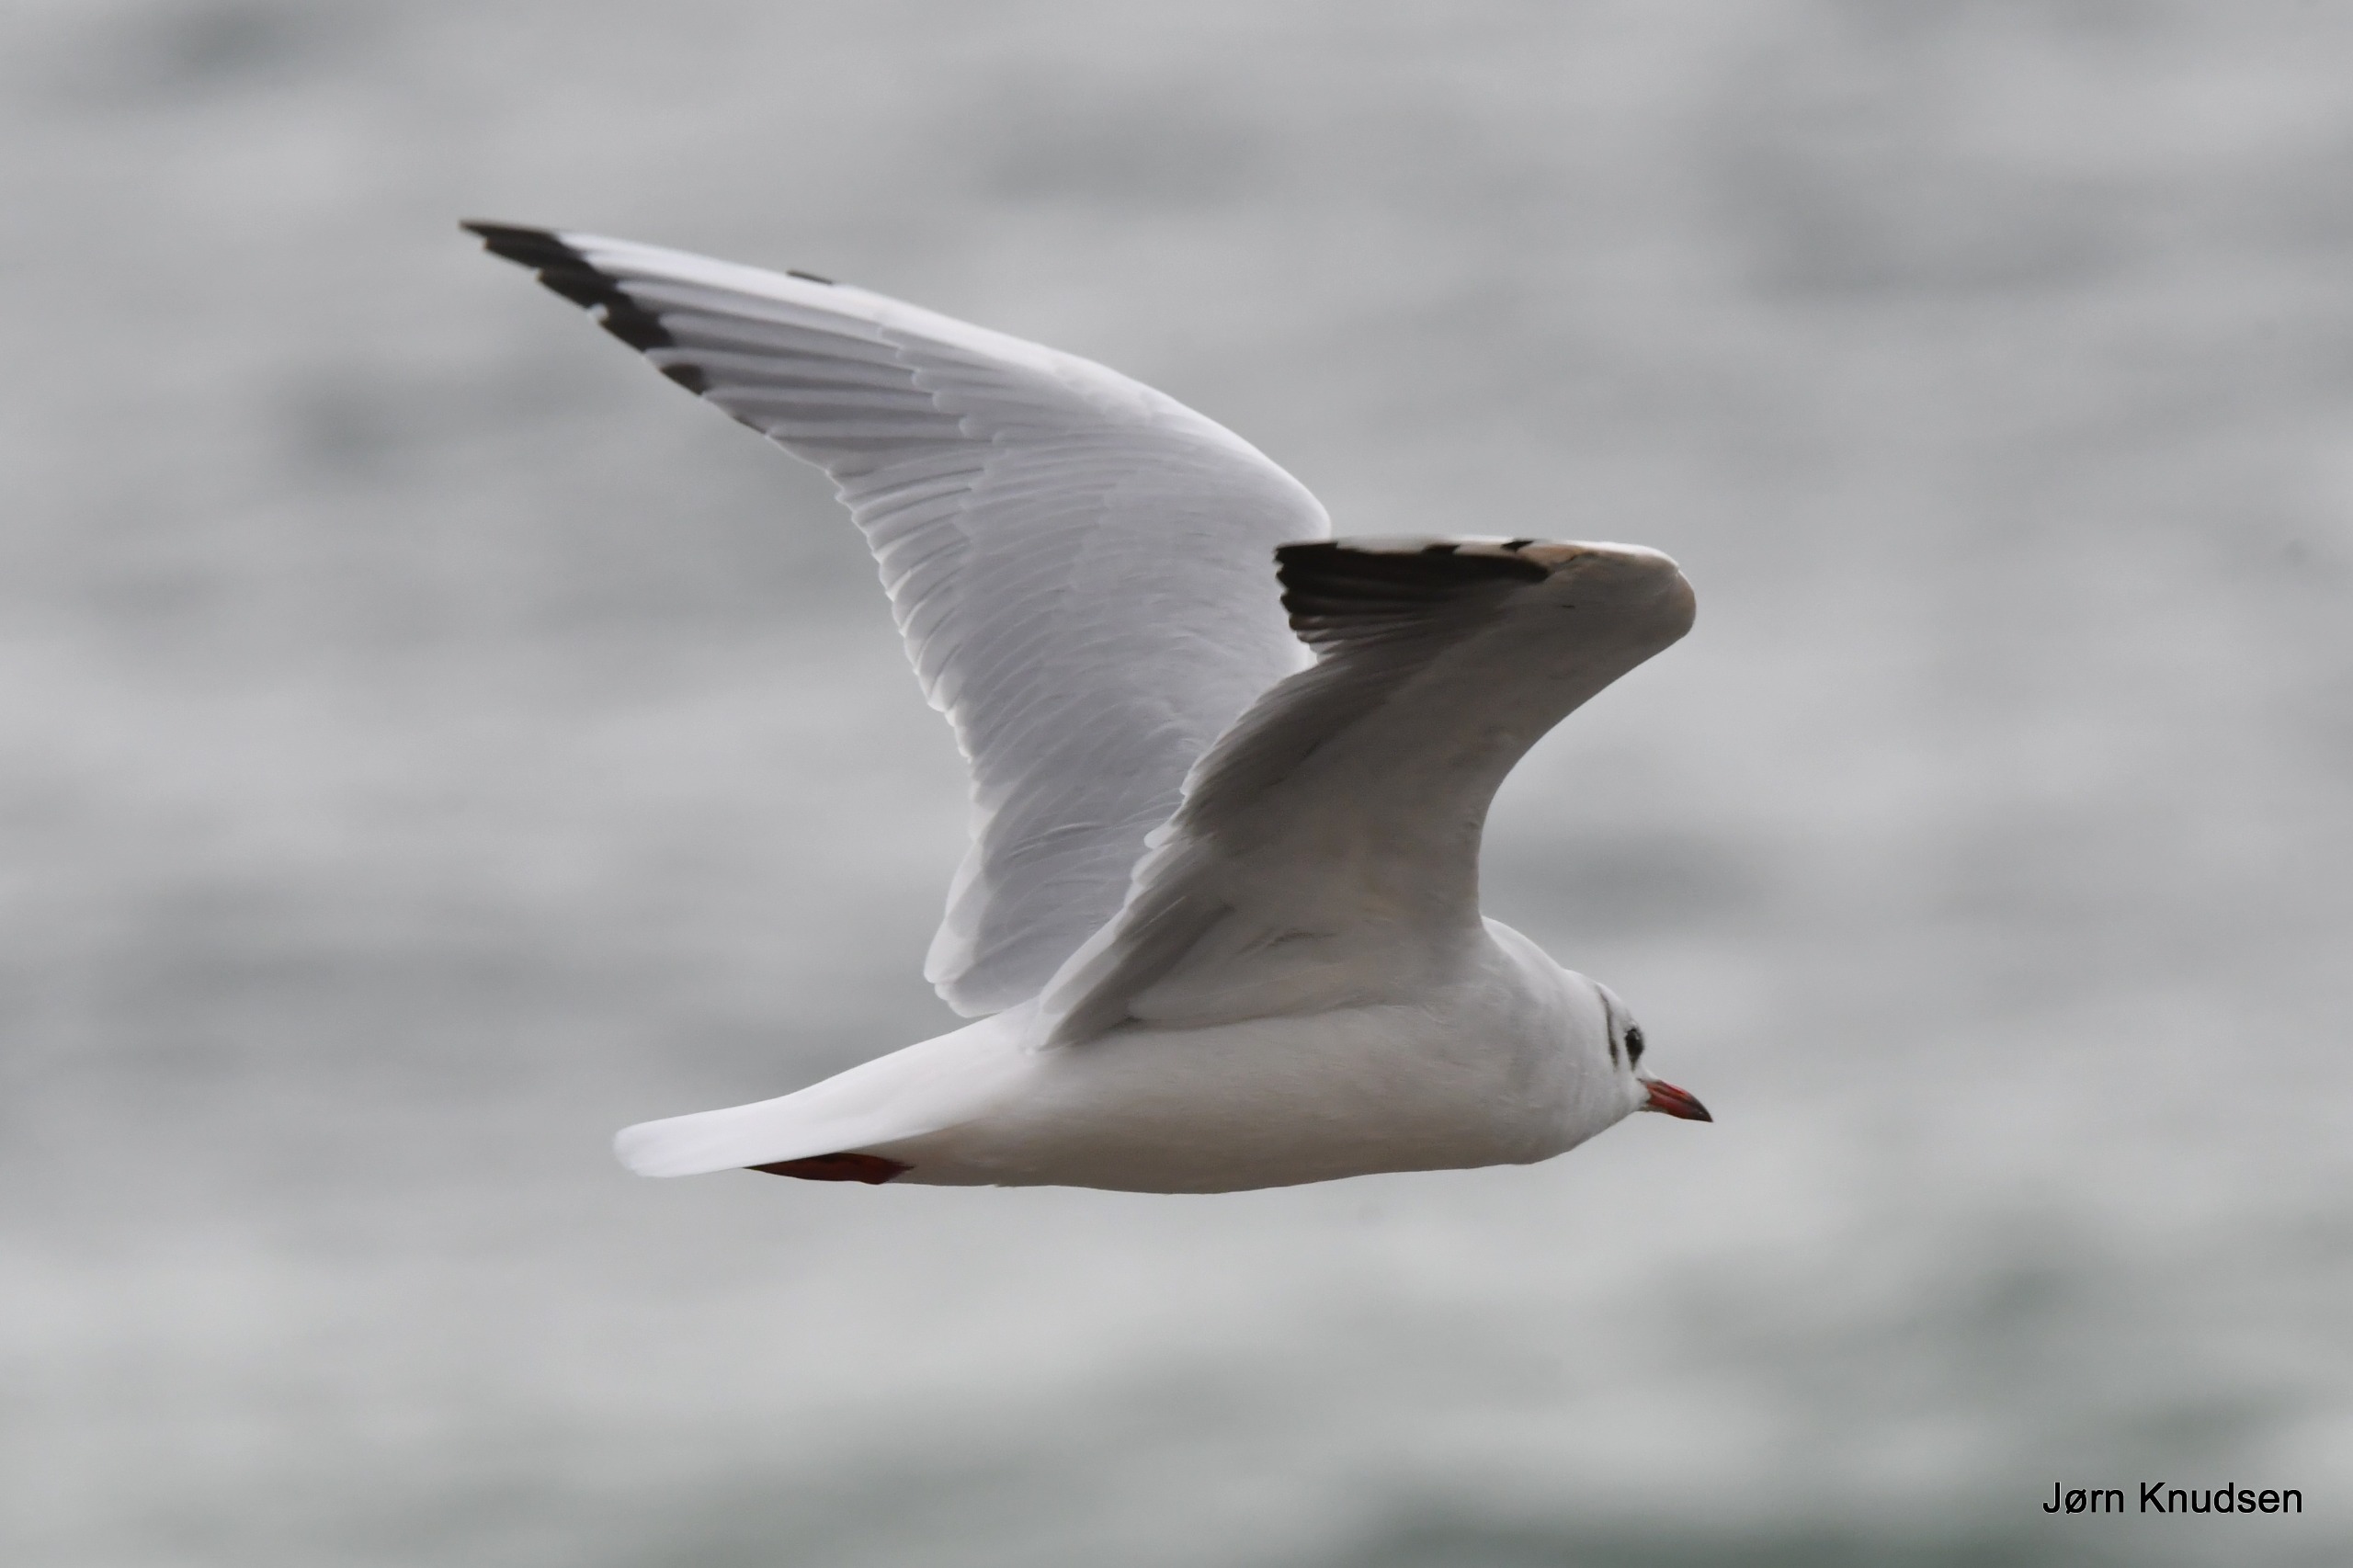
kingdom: Animalia
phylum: Chordata
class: Aves
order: Charadriiformes
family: Laridae
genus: Chroicocephalus
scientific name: Chroicocephalus ridibundus
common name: Hættemåge
